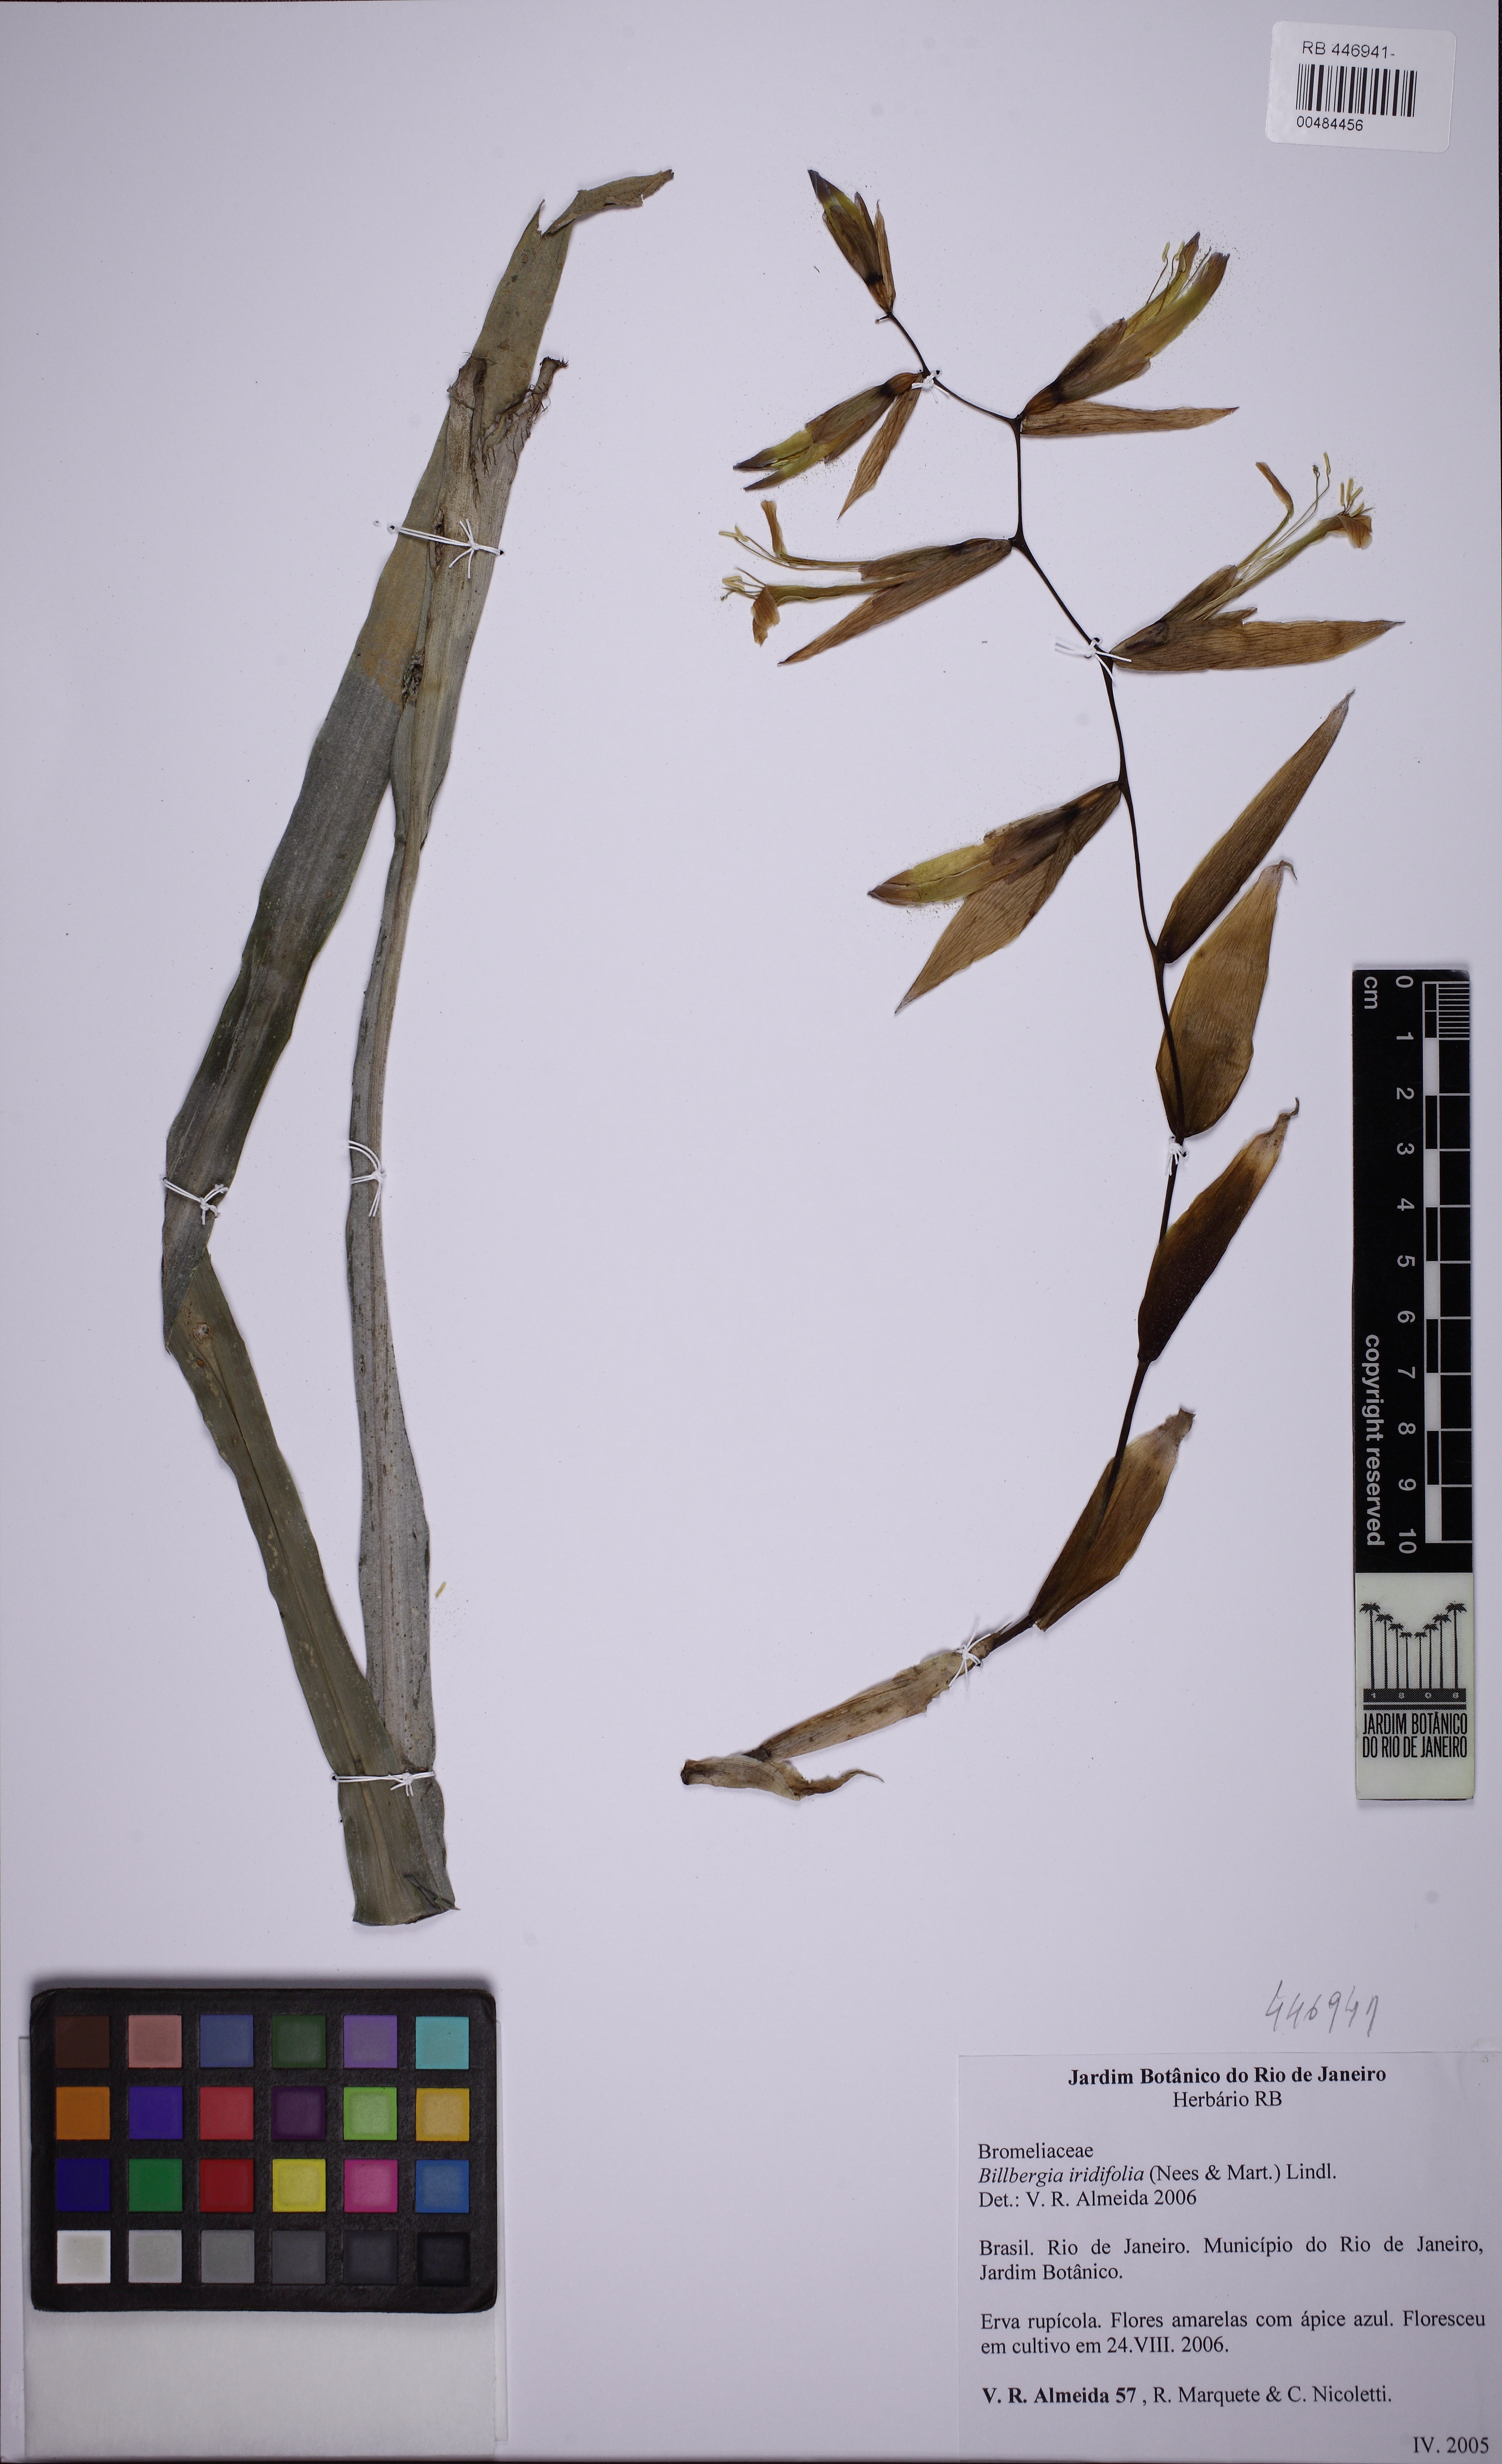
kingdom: Plantae
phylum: Tracheophyta
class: Liliopsida
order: Poales
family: Bromeliaceae
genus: Billbergia
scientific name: Billbergia iridifolia
